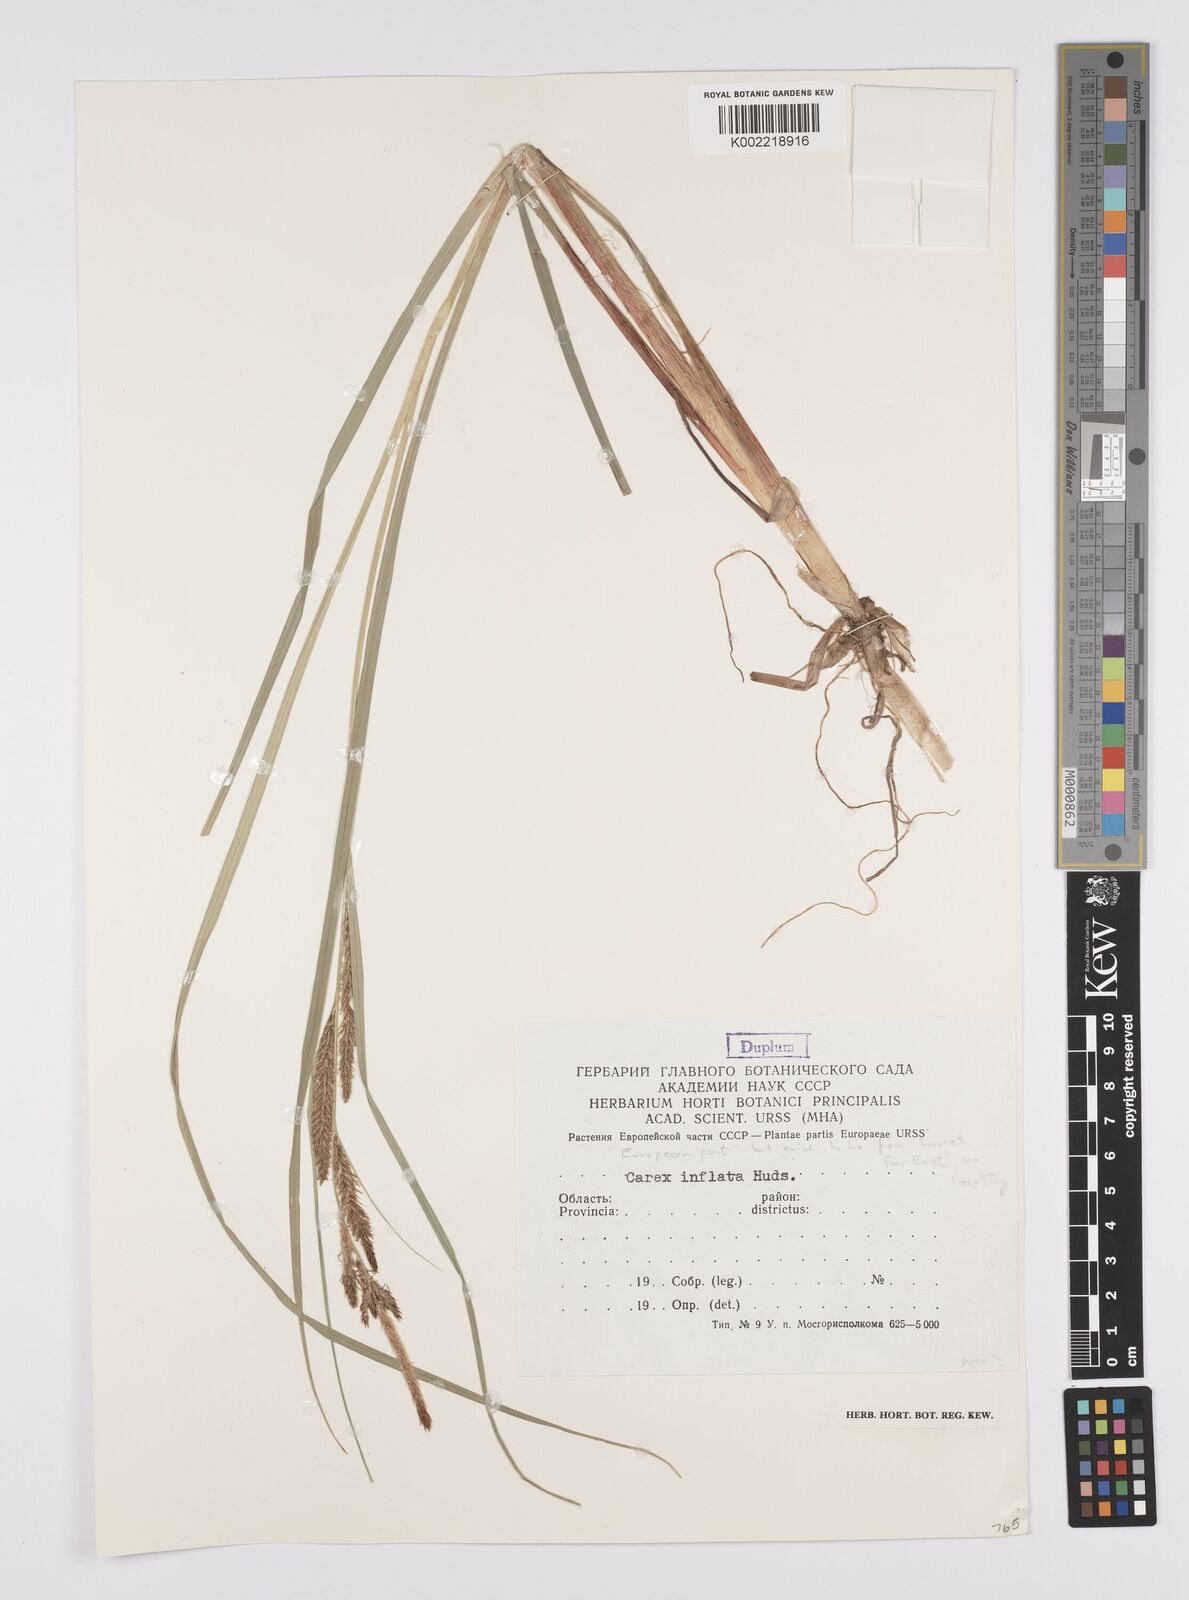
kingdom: Plantae
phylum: Tracheophyta
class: Liliopsida
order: Poales
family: Cyperaceae
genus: Carex
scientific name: Carex vesicaria
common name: Bladder-sedge
